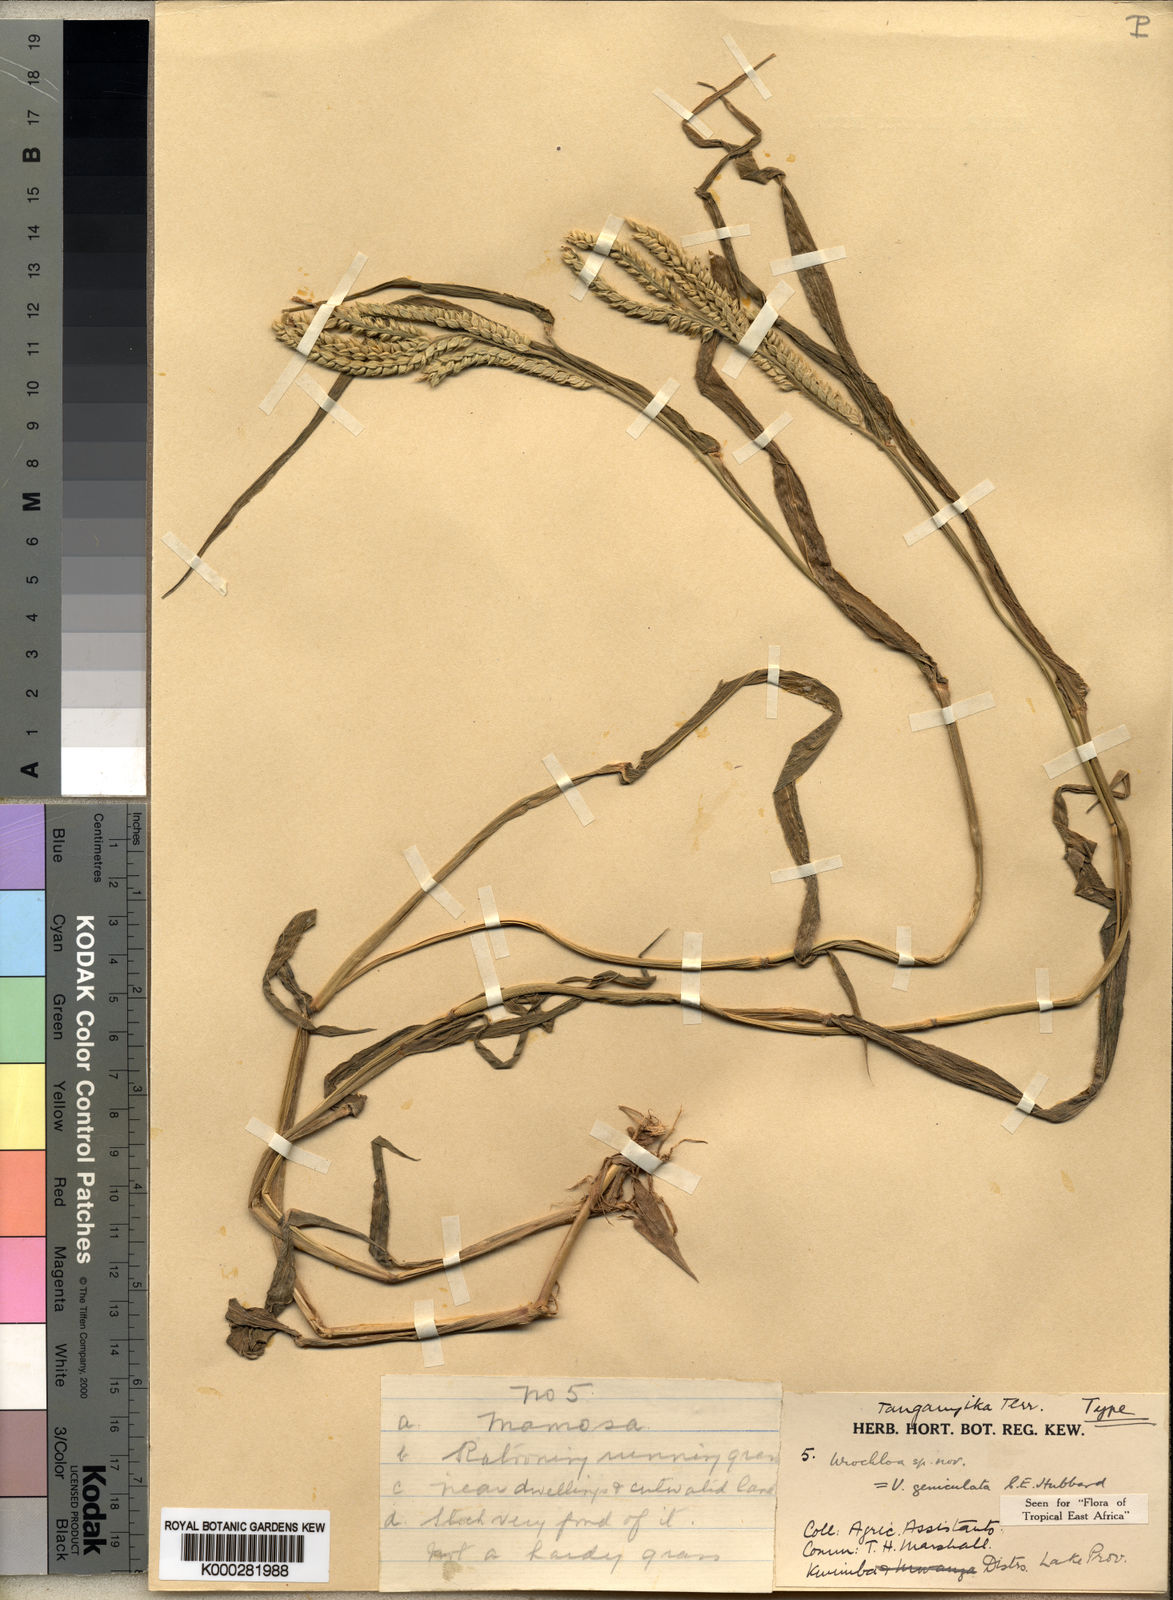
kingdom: Plantae
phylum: Tracheophyta
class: Liliopsida
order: Poales
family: Poaceae
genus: Urochloa
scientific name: Urochloa brachyura
